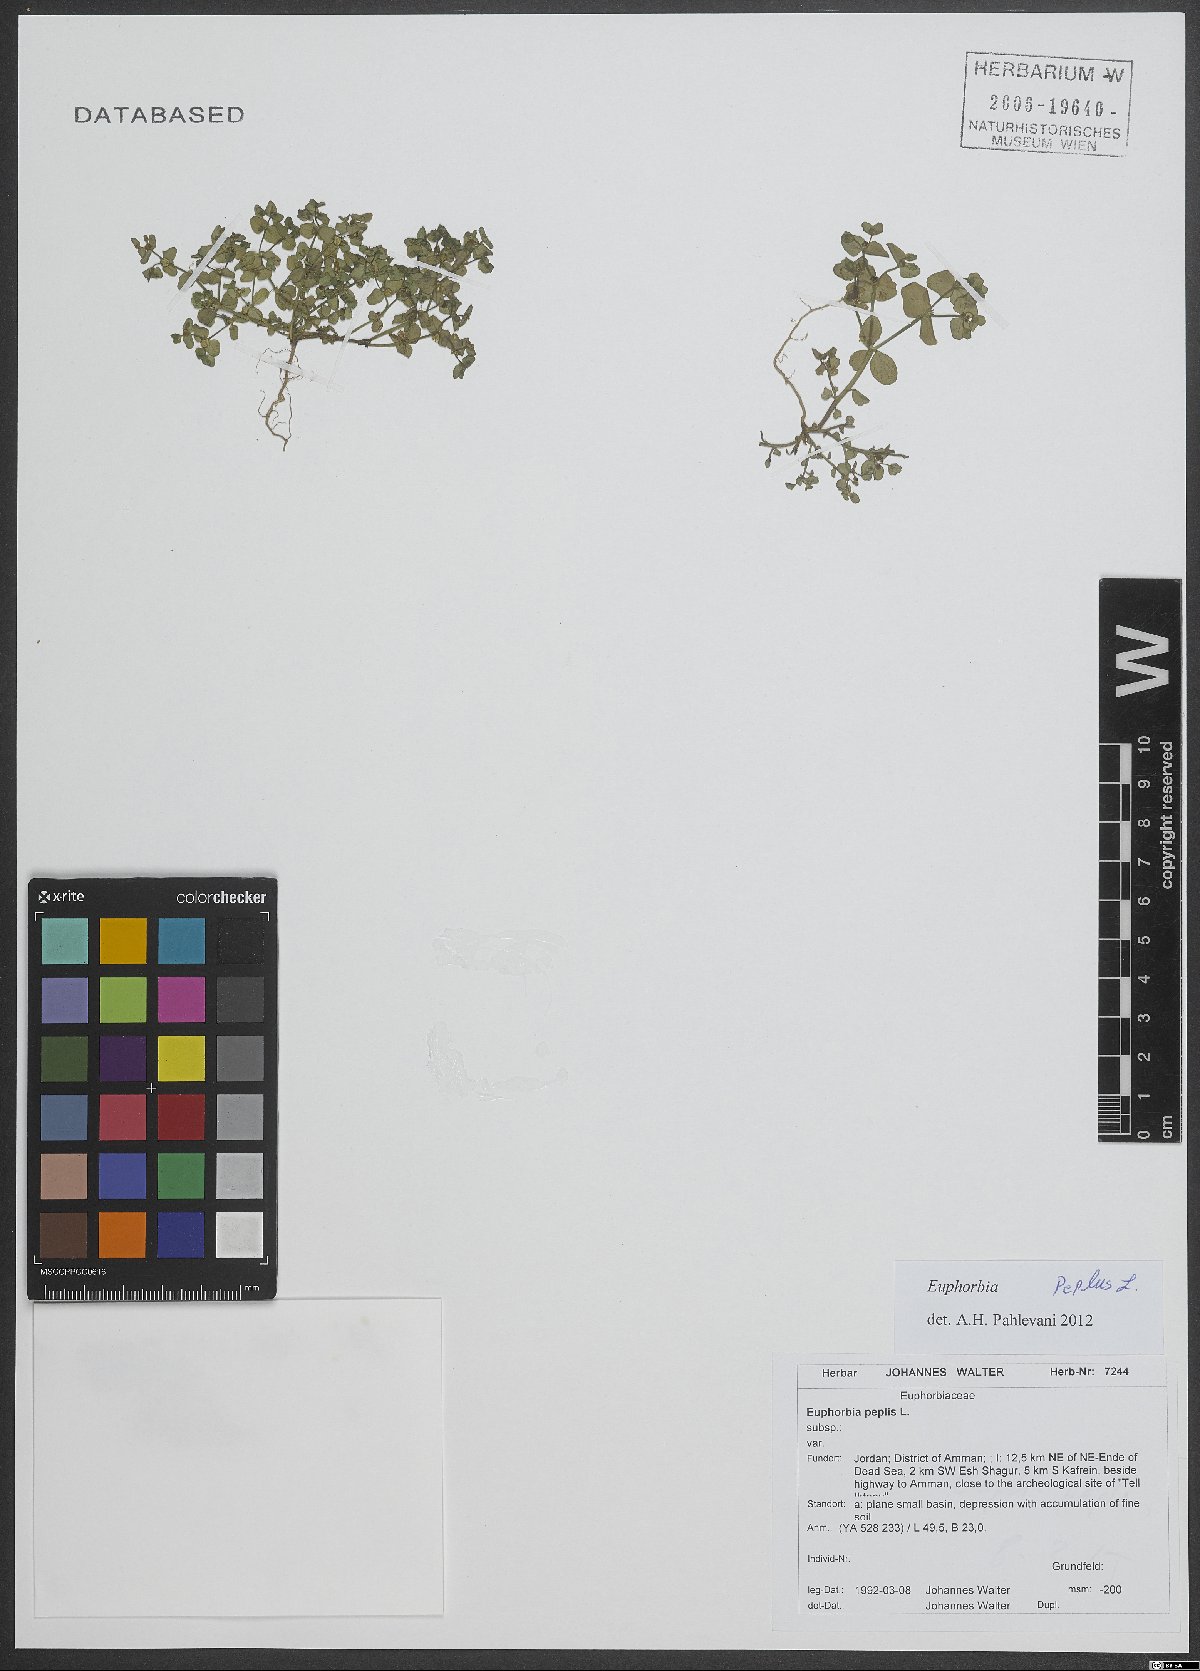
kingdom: Plantae
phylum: Tracheophyta
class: Magnoliopsida
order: Malpighiales
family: Euphorbiaceae
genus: Euphorbia
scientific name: Euphorbia peplus
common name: Petty spurge
